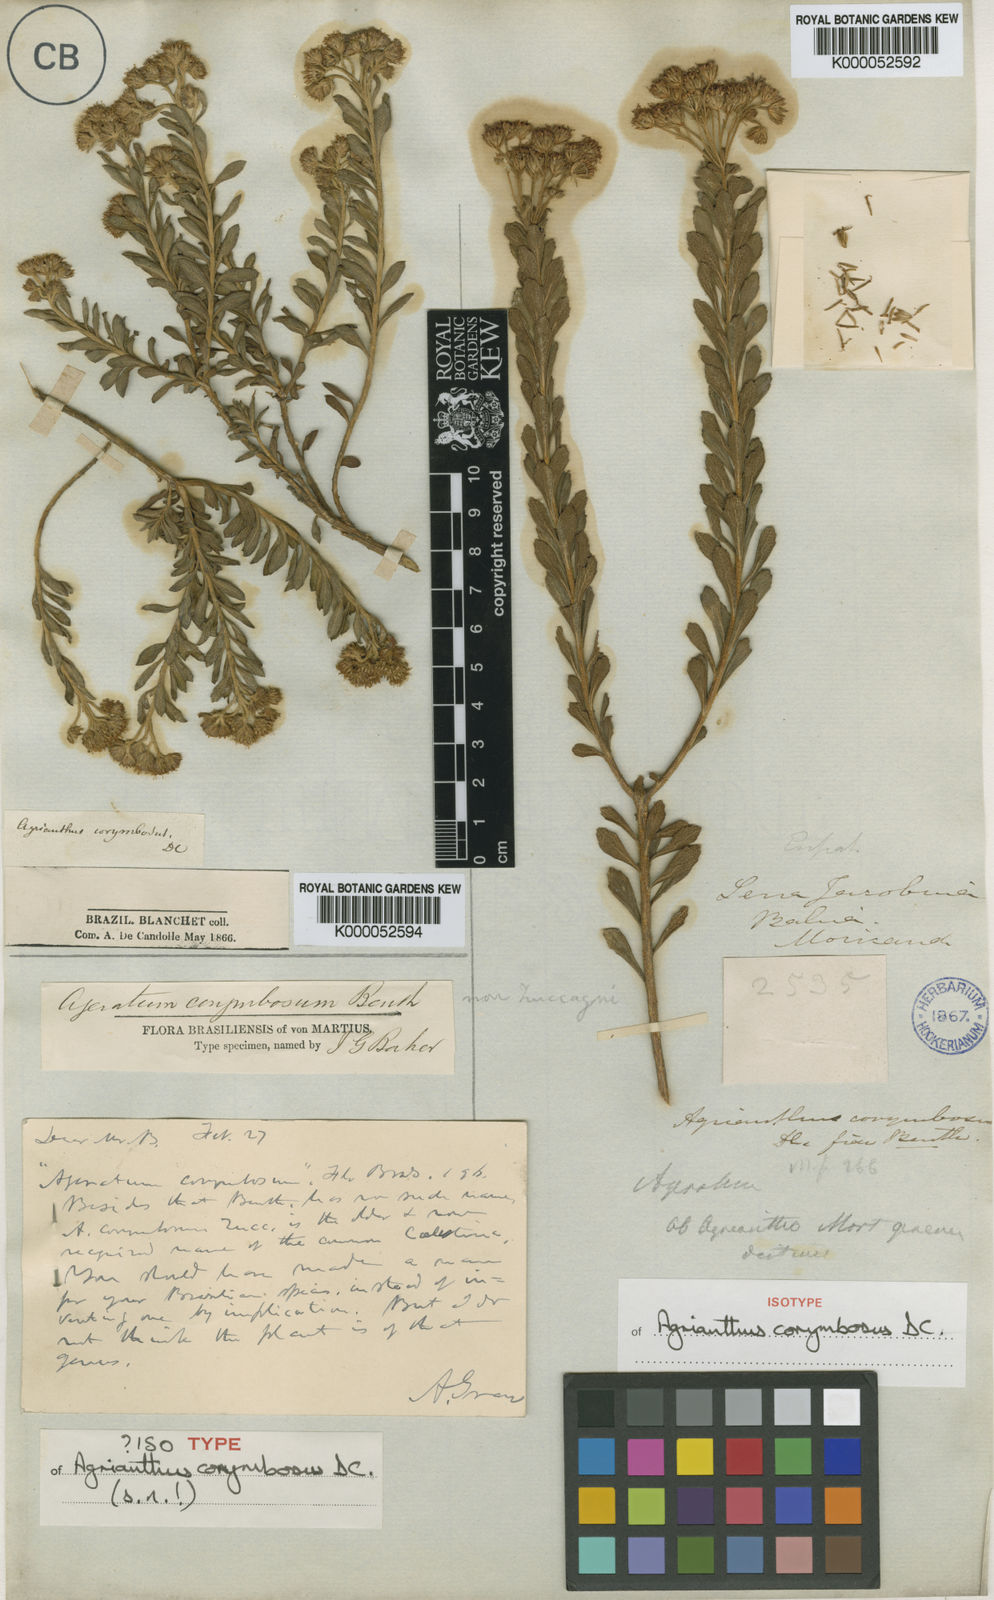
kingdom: Plantae
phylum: Tracheophyta
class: Magnoliopsida
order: Asterales
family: Asteraceae
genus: Stylotrichium
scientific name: Stylotrichium corymbosum
